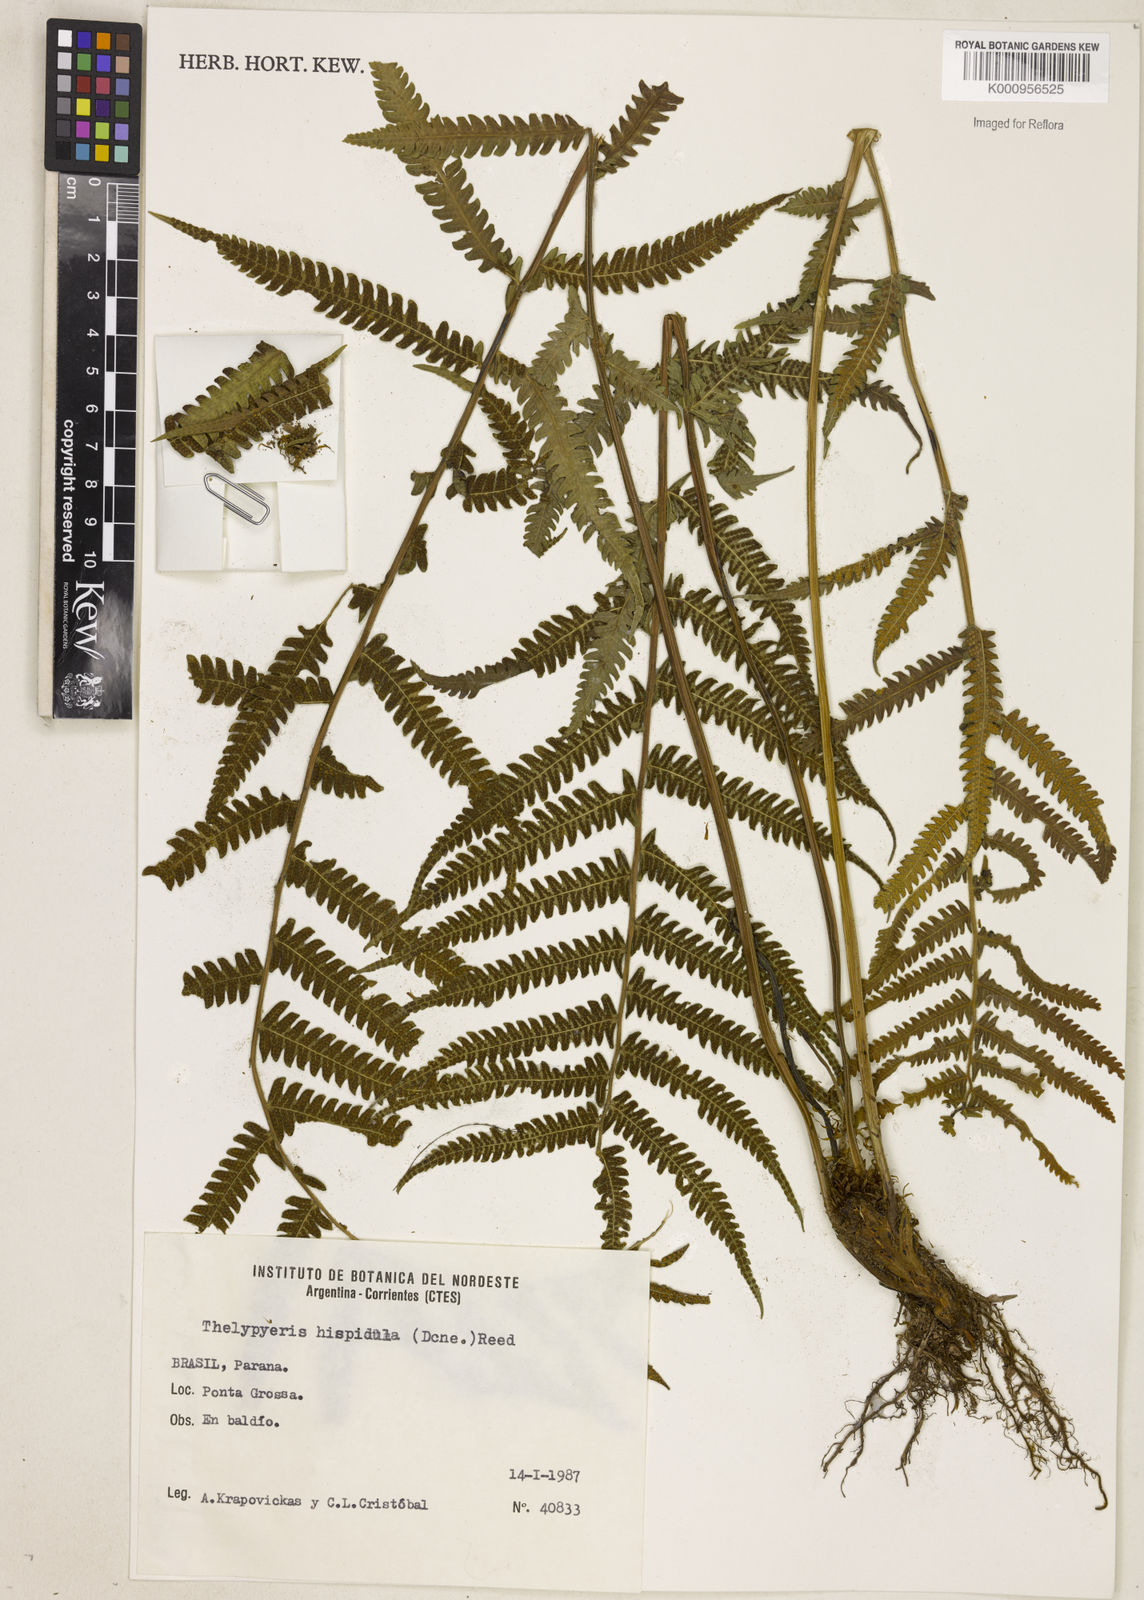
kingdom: Plantae
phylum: Tracheophyta
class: Polypodiopsida
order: Polypodiales
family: Thelypteridaceae
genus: Christella
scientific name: Christella hispidula
